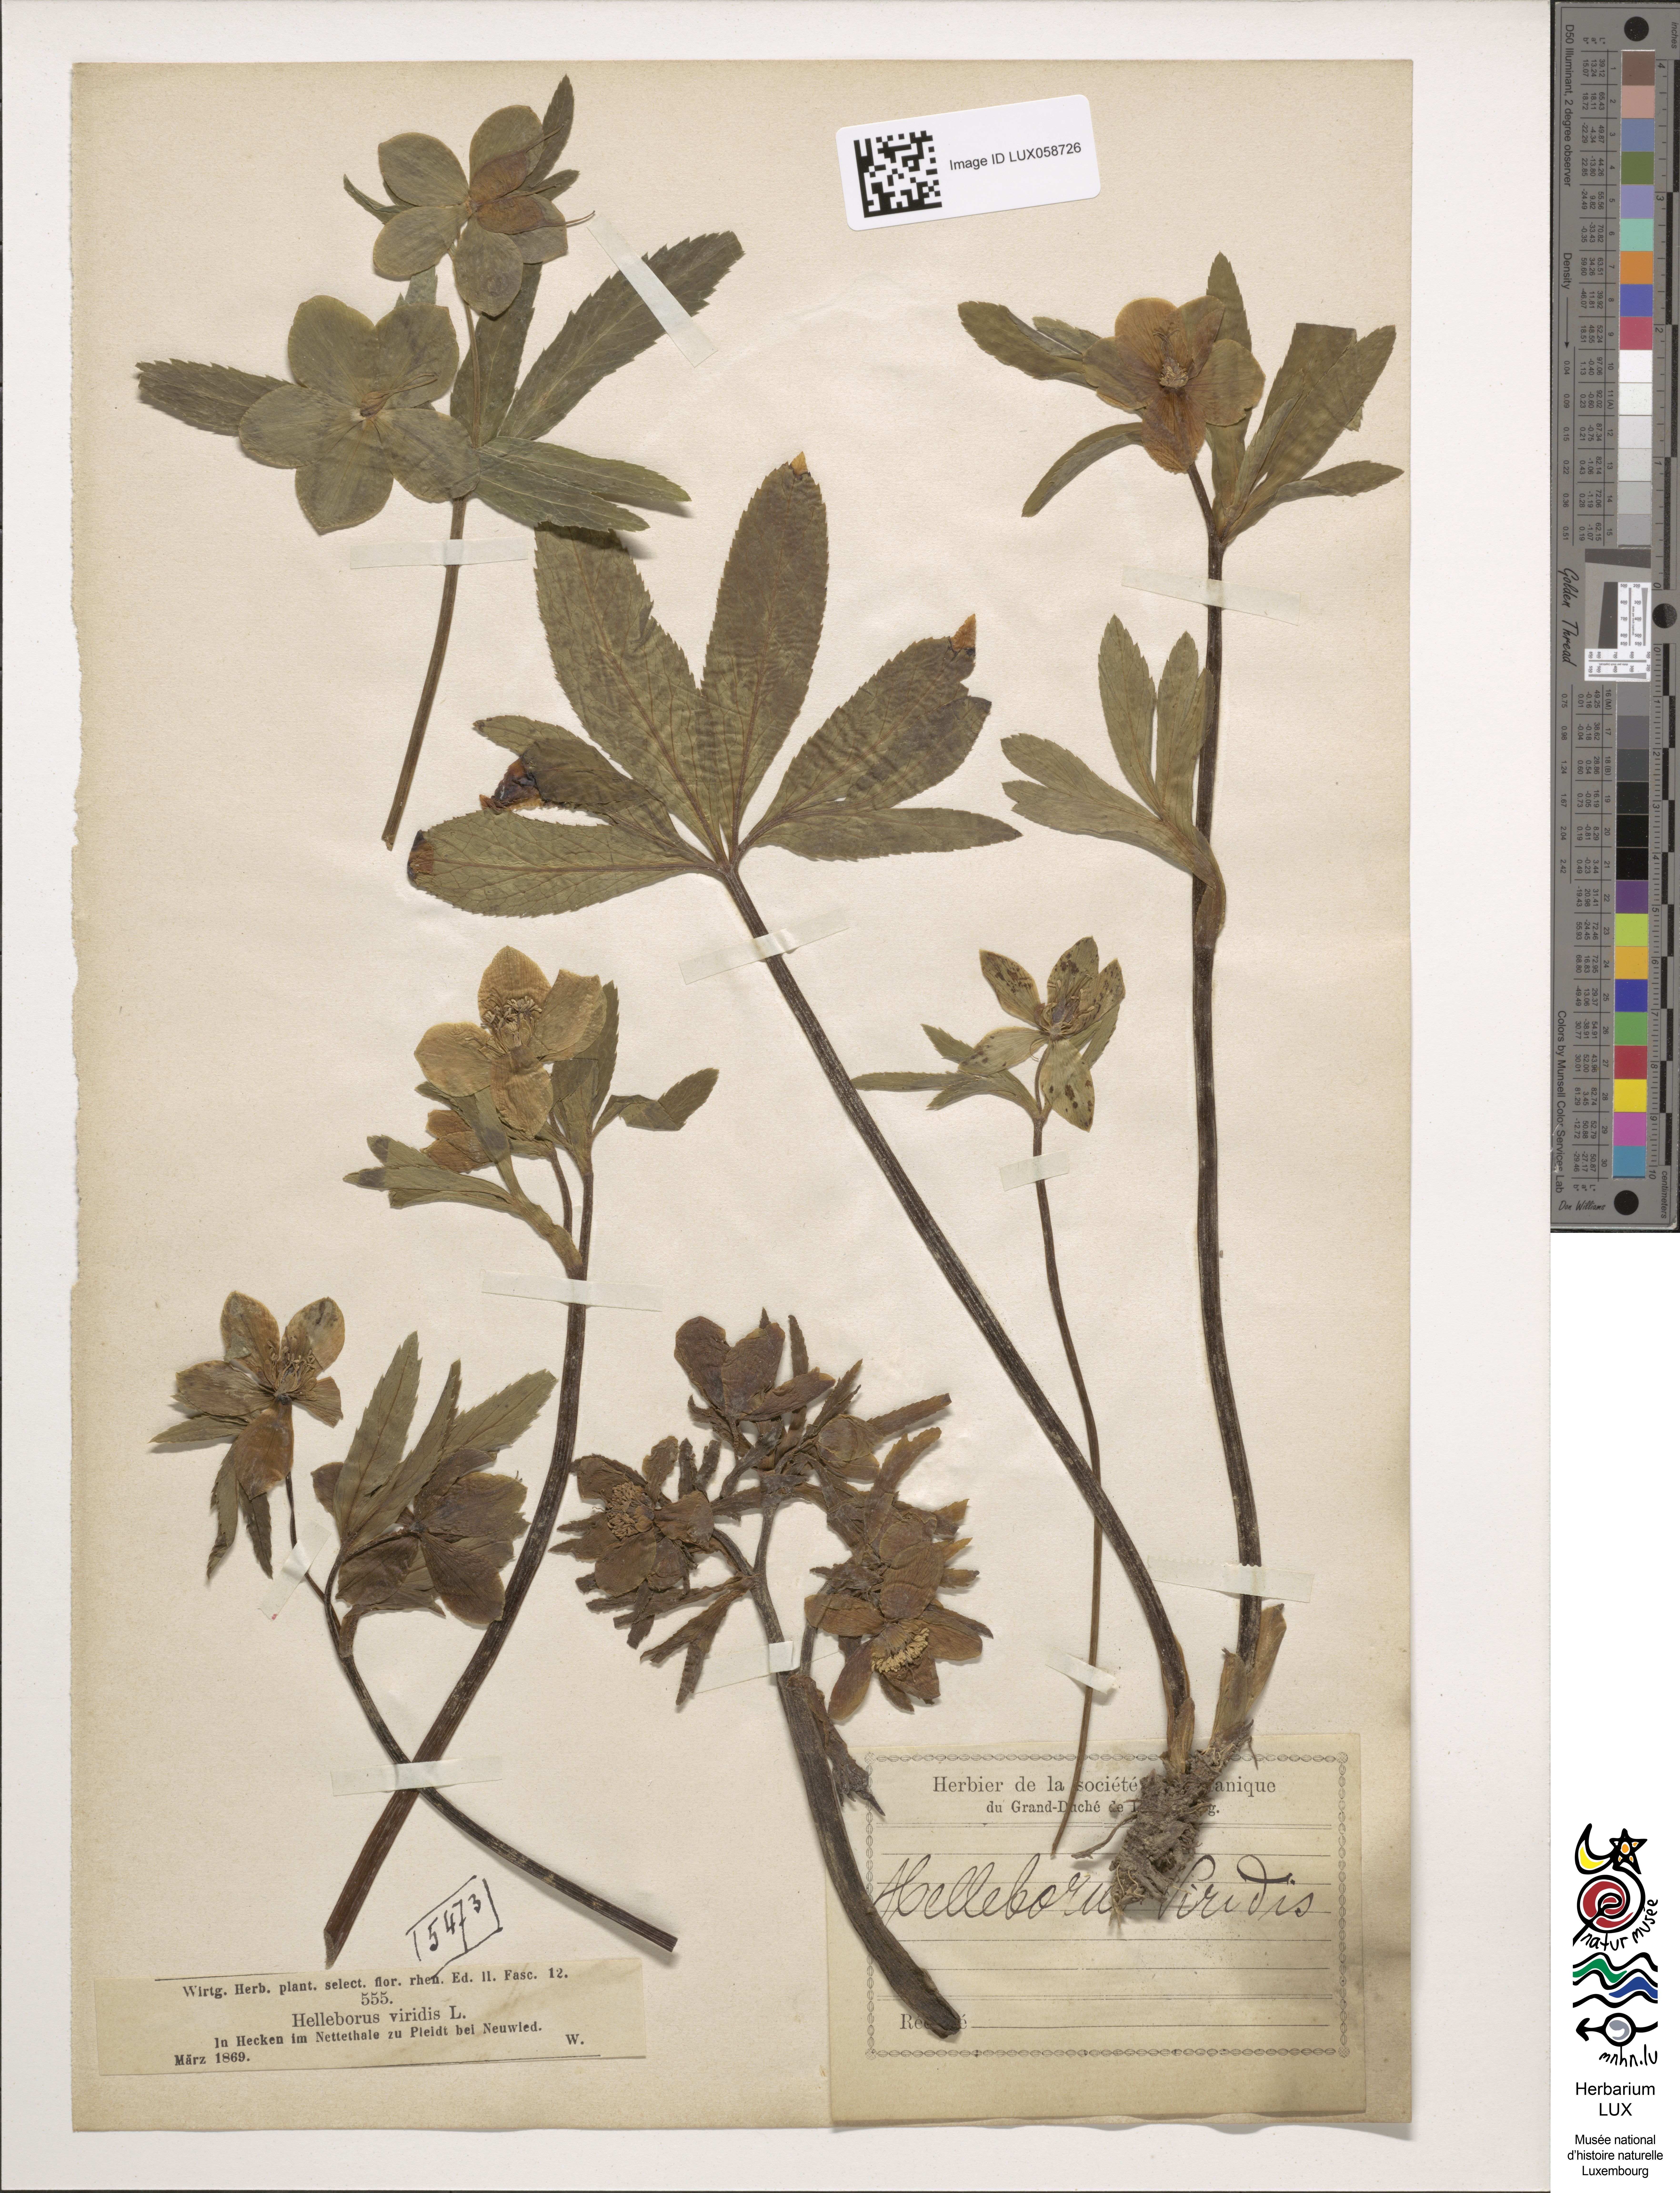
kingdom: Plantae
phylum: Tracheophyta
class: Magnoliopsida
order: Ranunculales
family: Ranunculaceae
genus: Helleborus
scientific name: Helleborus viridis
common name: Green hellebore
